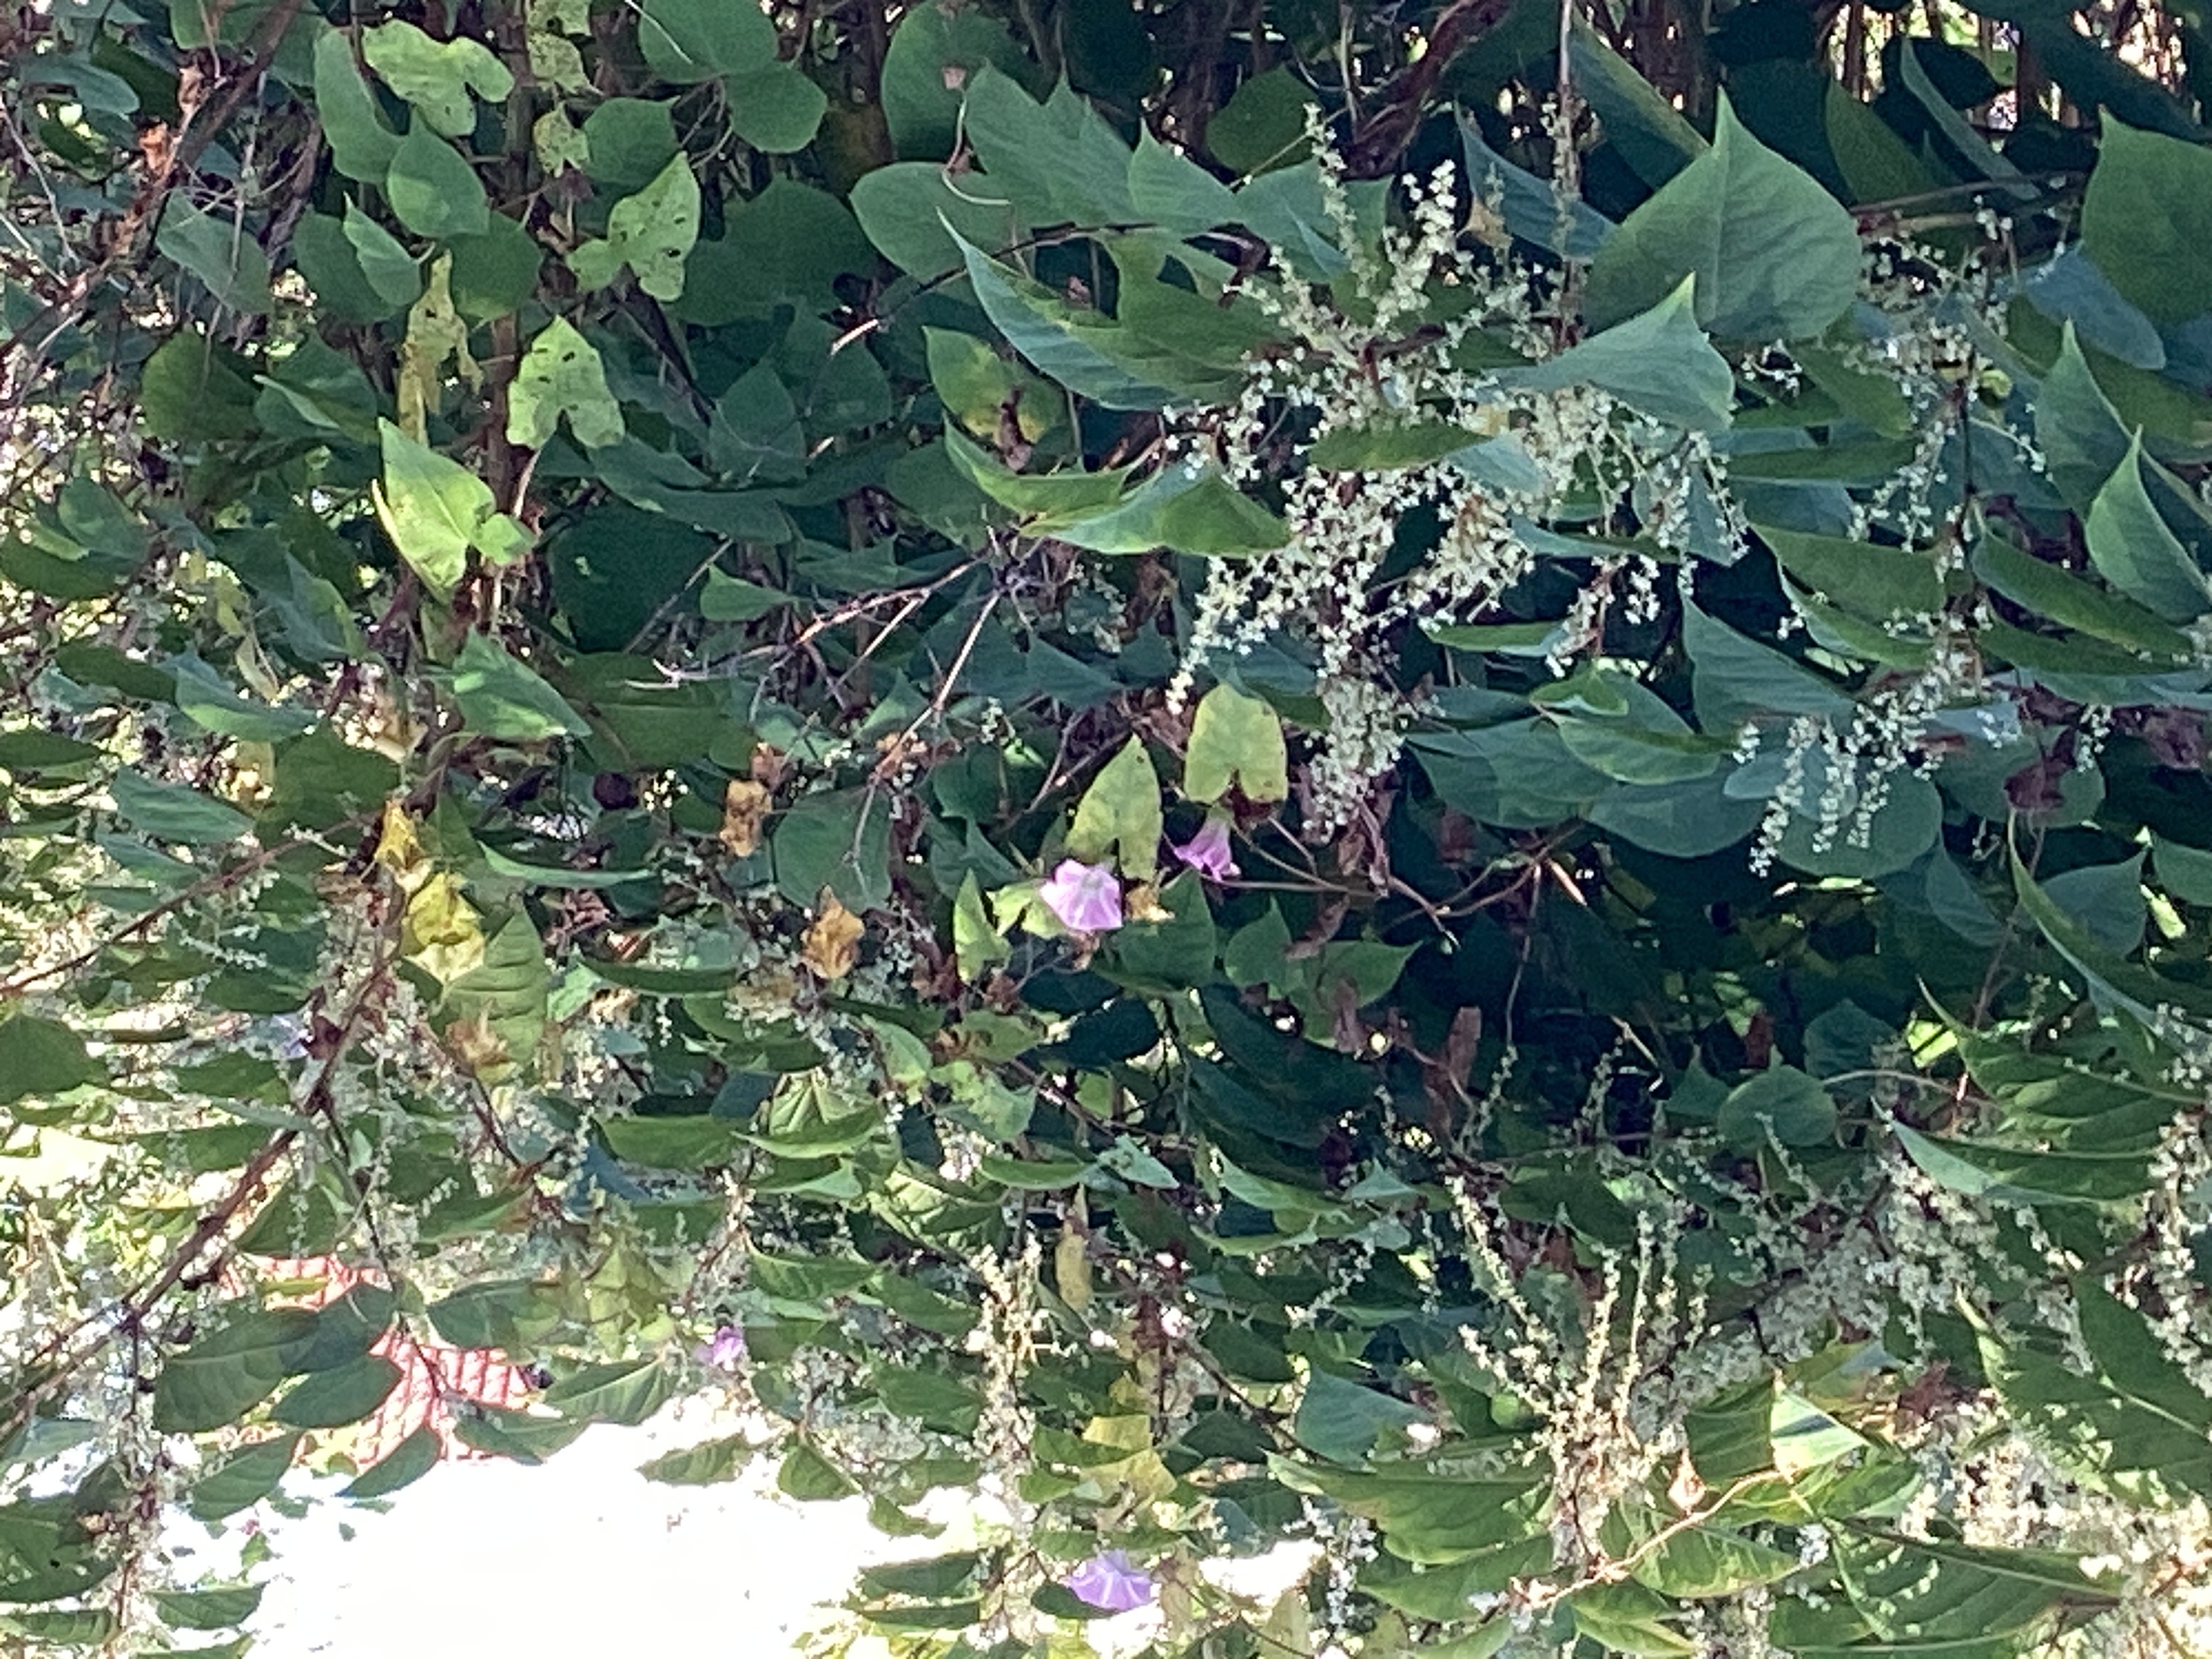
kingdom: Plantae
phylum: Tracheophyta
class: Magnoliopsida
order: Solanales
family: Convolvulaceae
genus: Calystegia
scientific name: Calystegia pulchra
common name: rosenvindel
